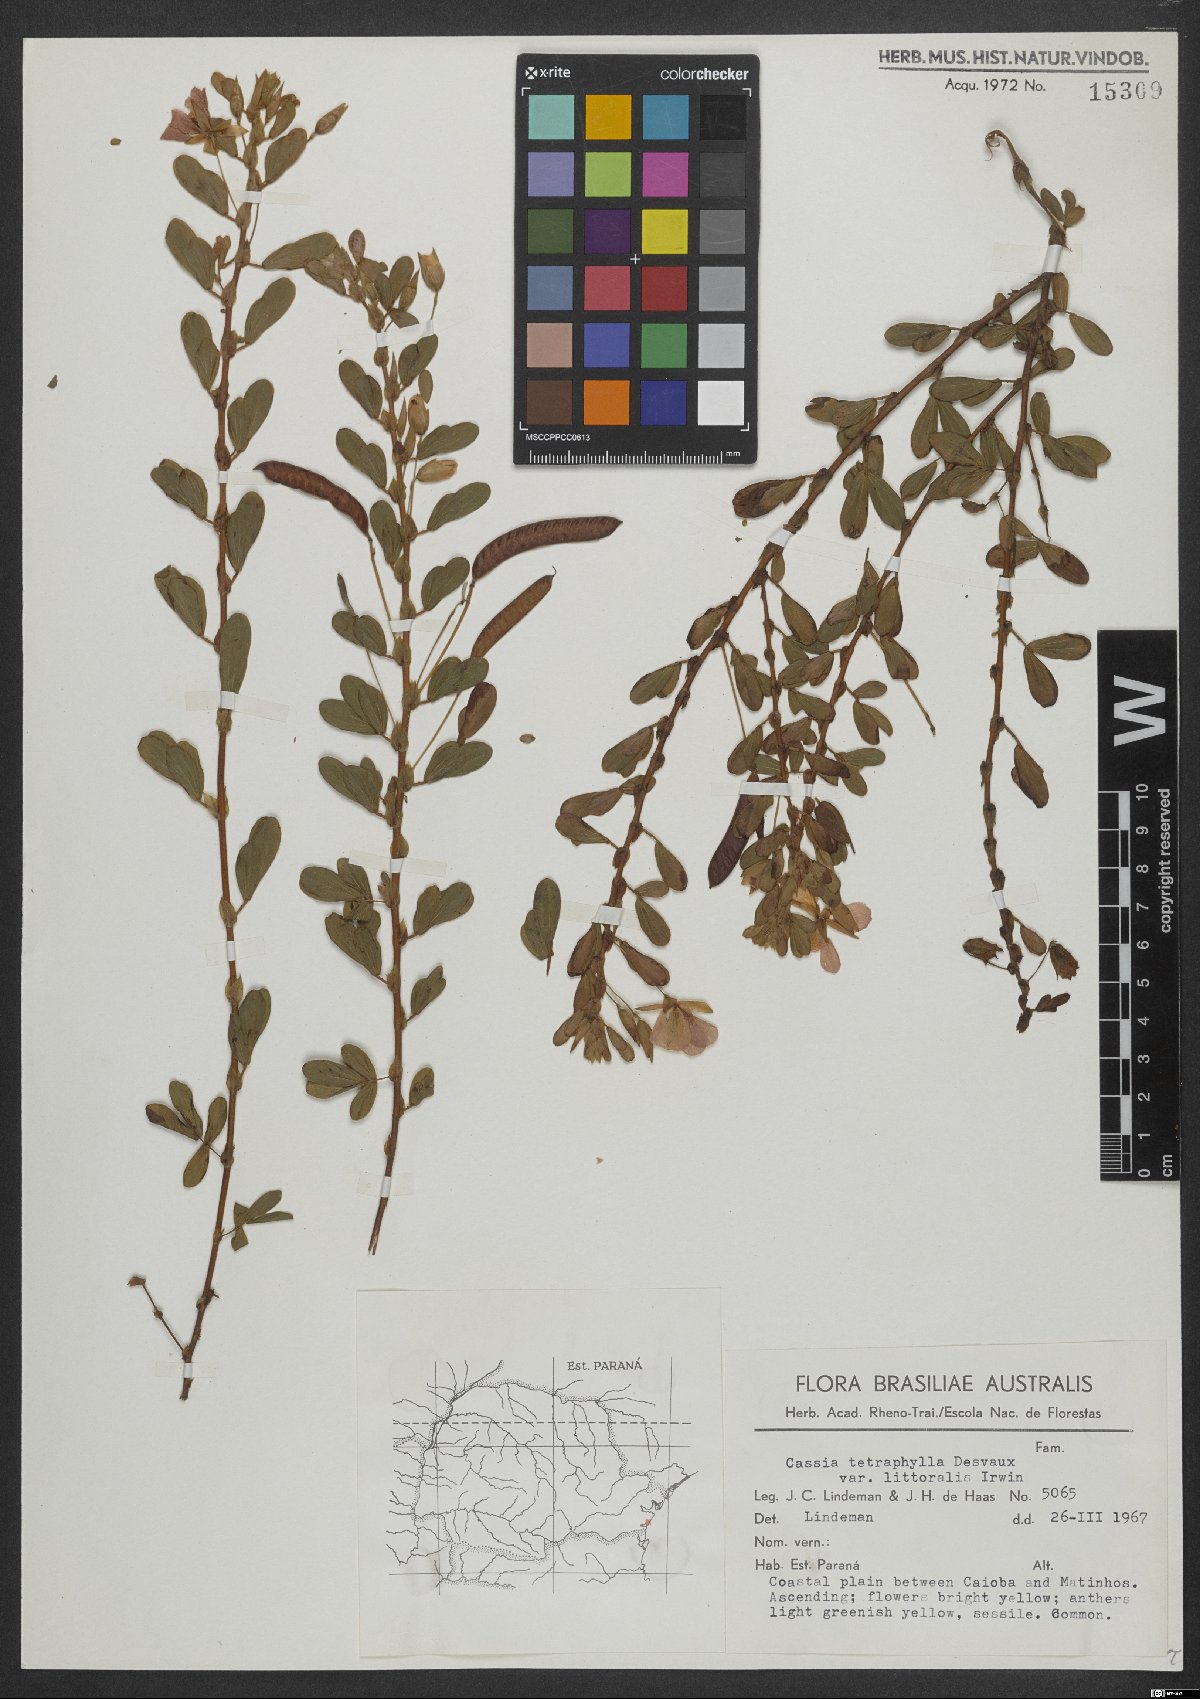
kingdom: Plantae
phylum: Tracheophyta
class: Magnoliopsida
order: Fabales
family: Fabaceae
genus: Chamaecrista
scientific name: Chamaecrista desvauxii
